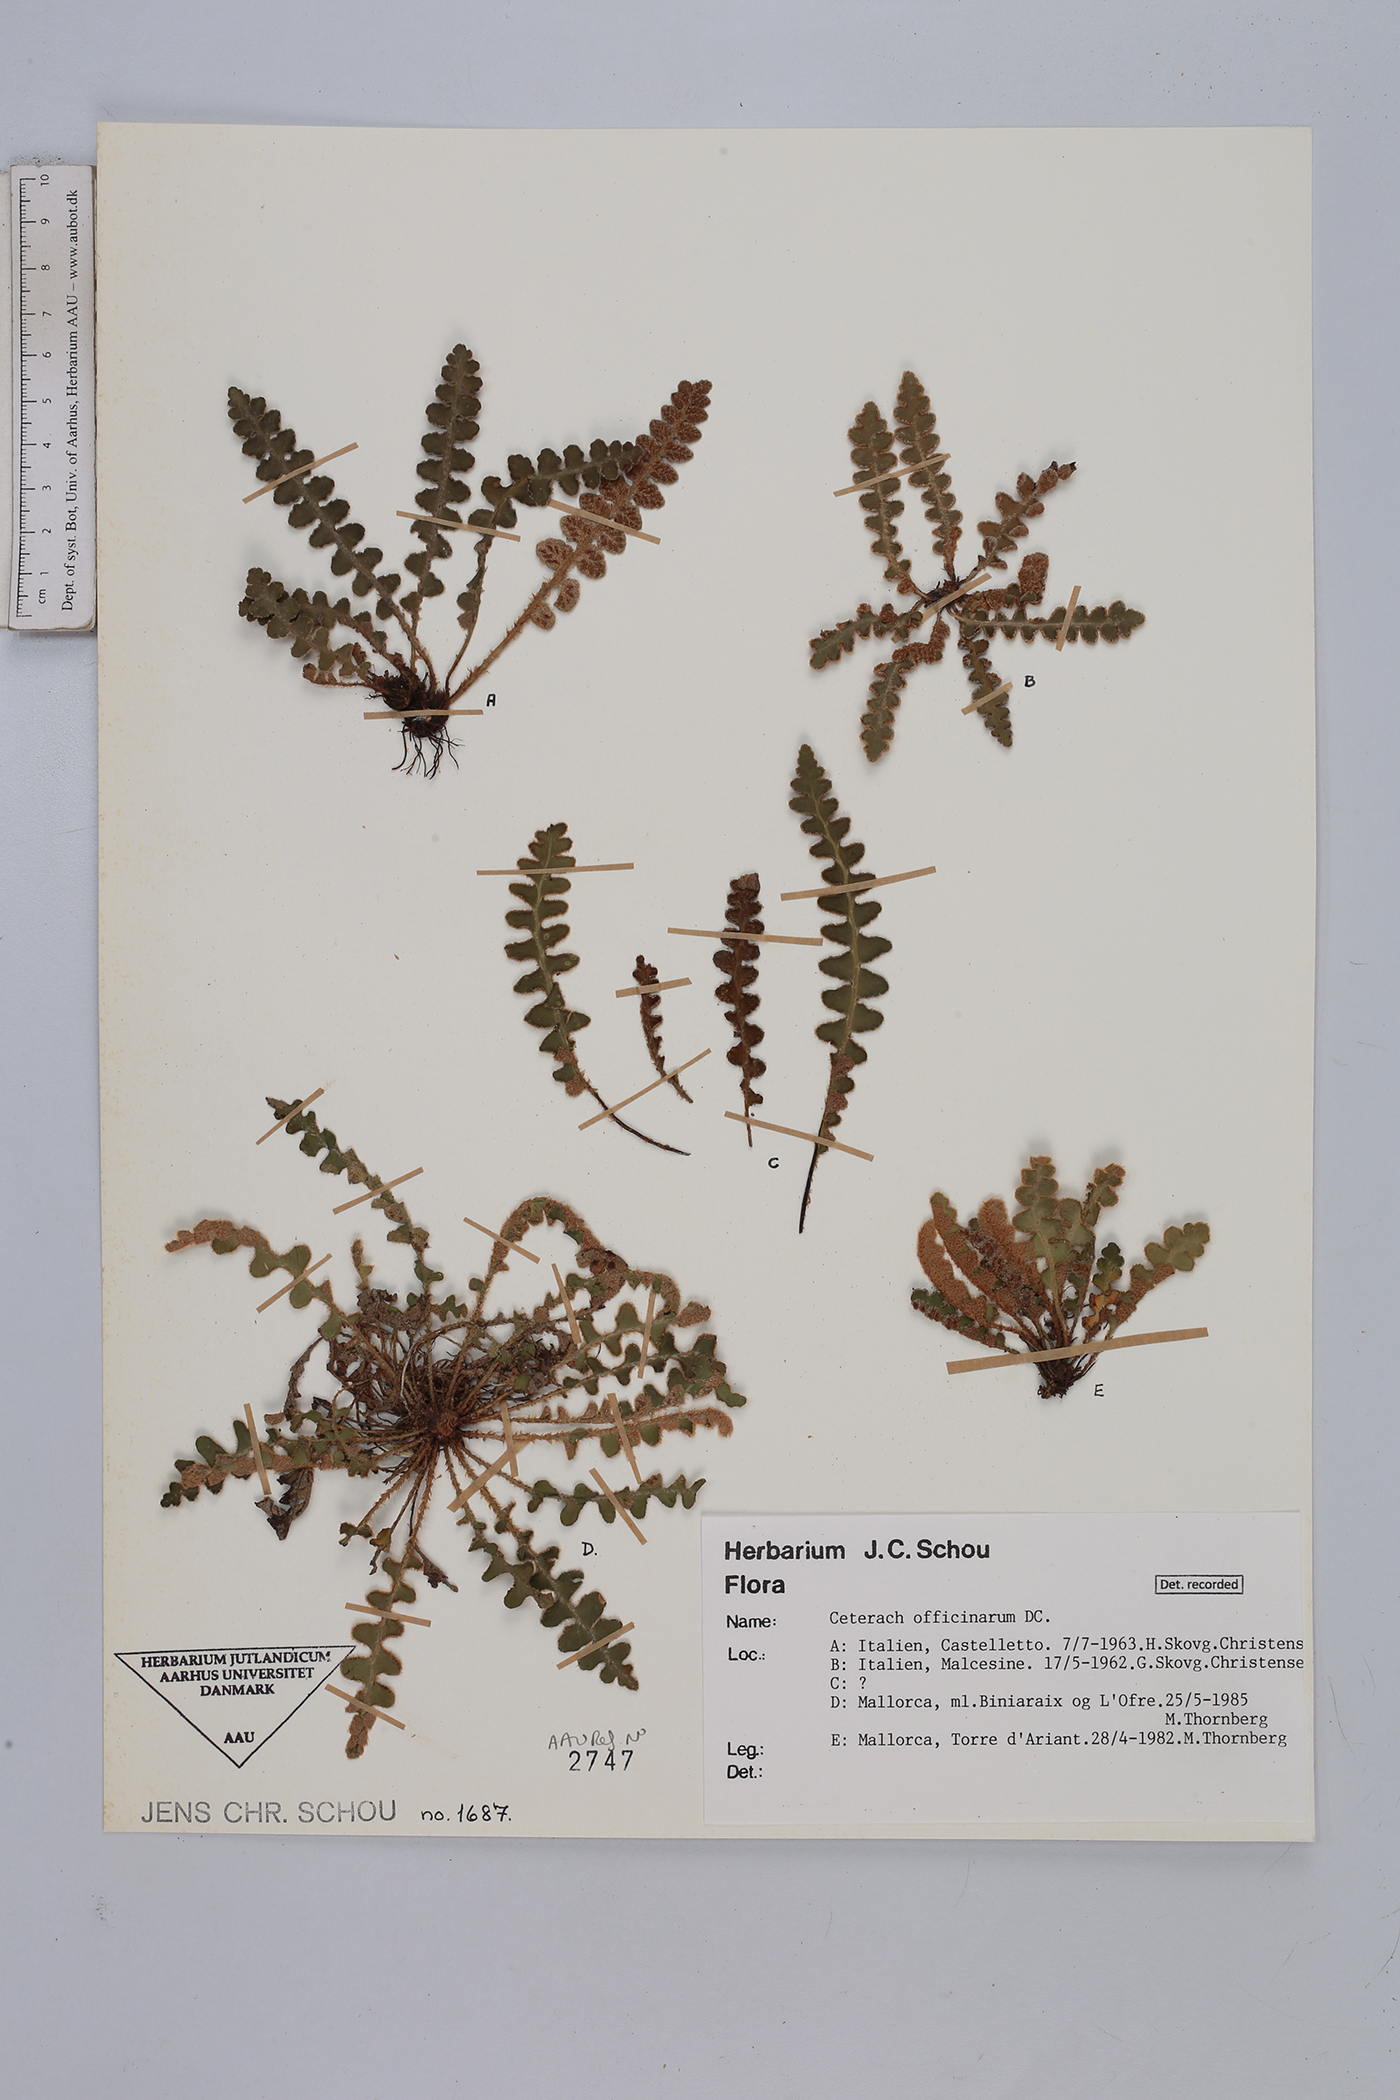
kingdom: Plantae
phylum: Tracheophyta
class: Polypodiopsida
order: Polypodiales
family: Aspleniaceae
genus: Asplenium
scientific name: Asplenium ceterach
